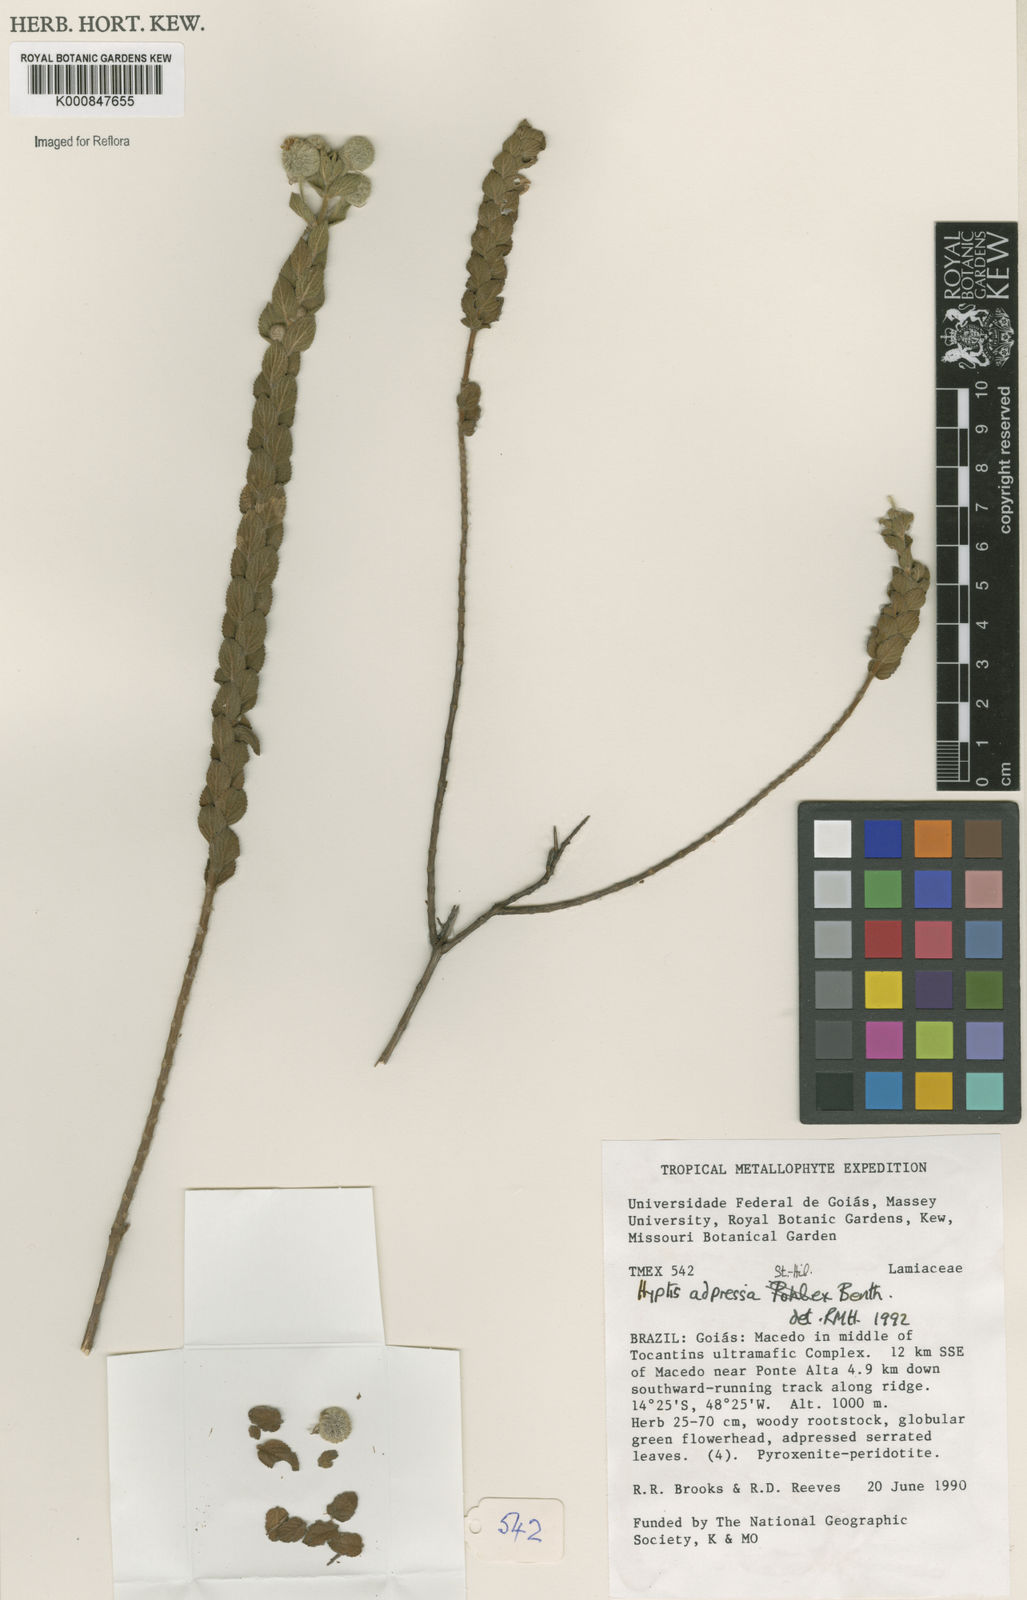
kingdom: Plantae
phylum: Tracheophyta
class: Magnoliopsida
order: Lamiales
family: Lamiaceae
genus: Cyanocephalus
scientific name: Cyanocephalus adpressus
